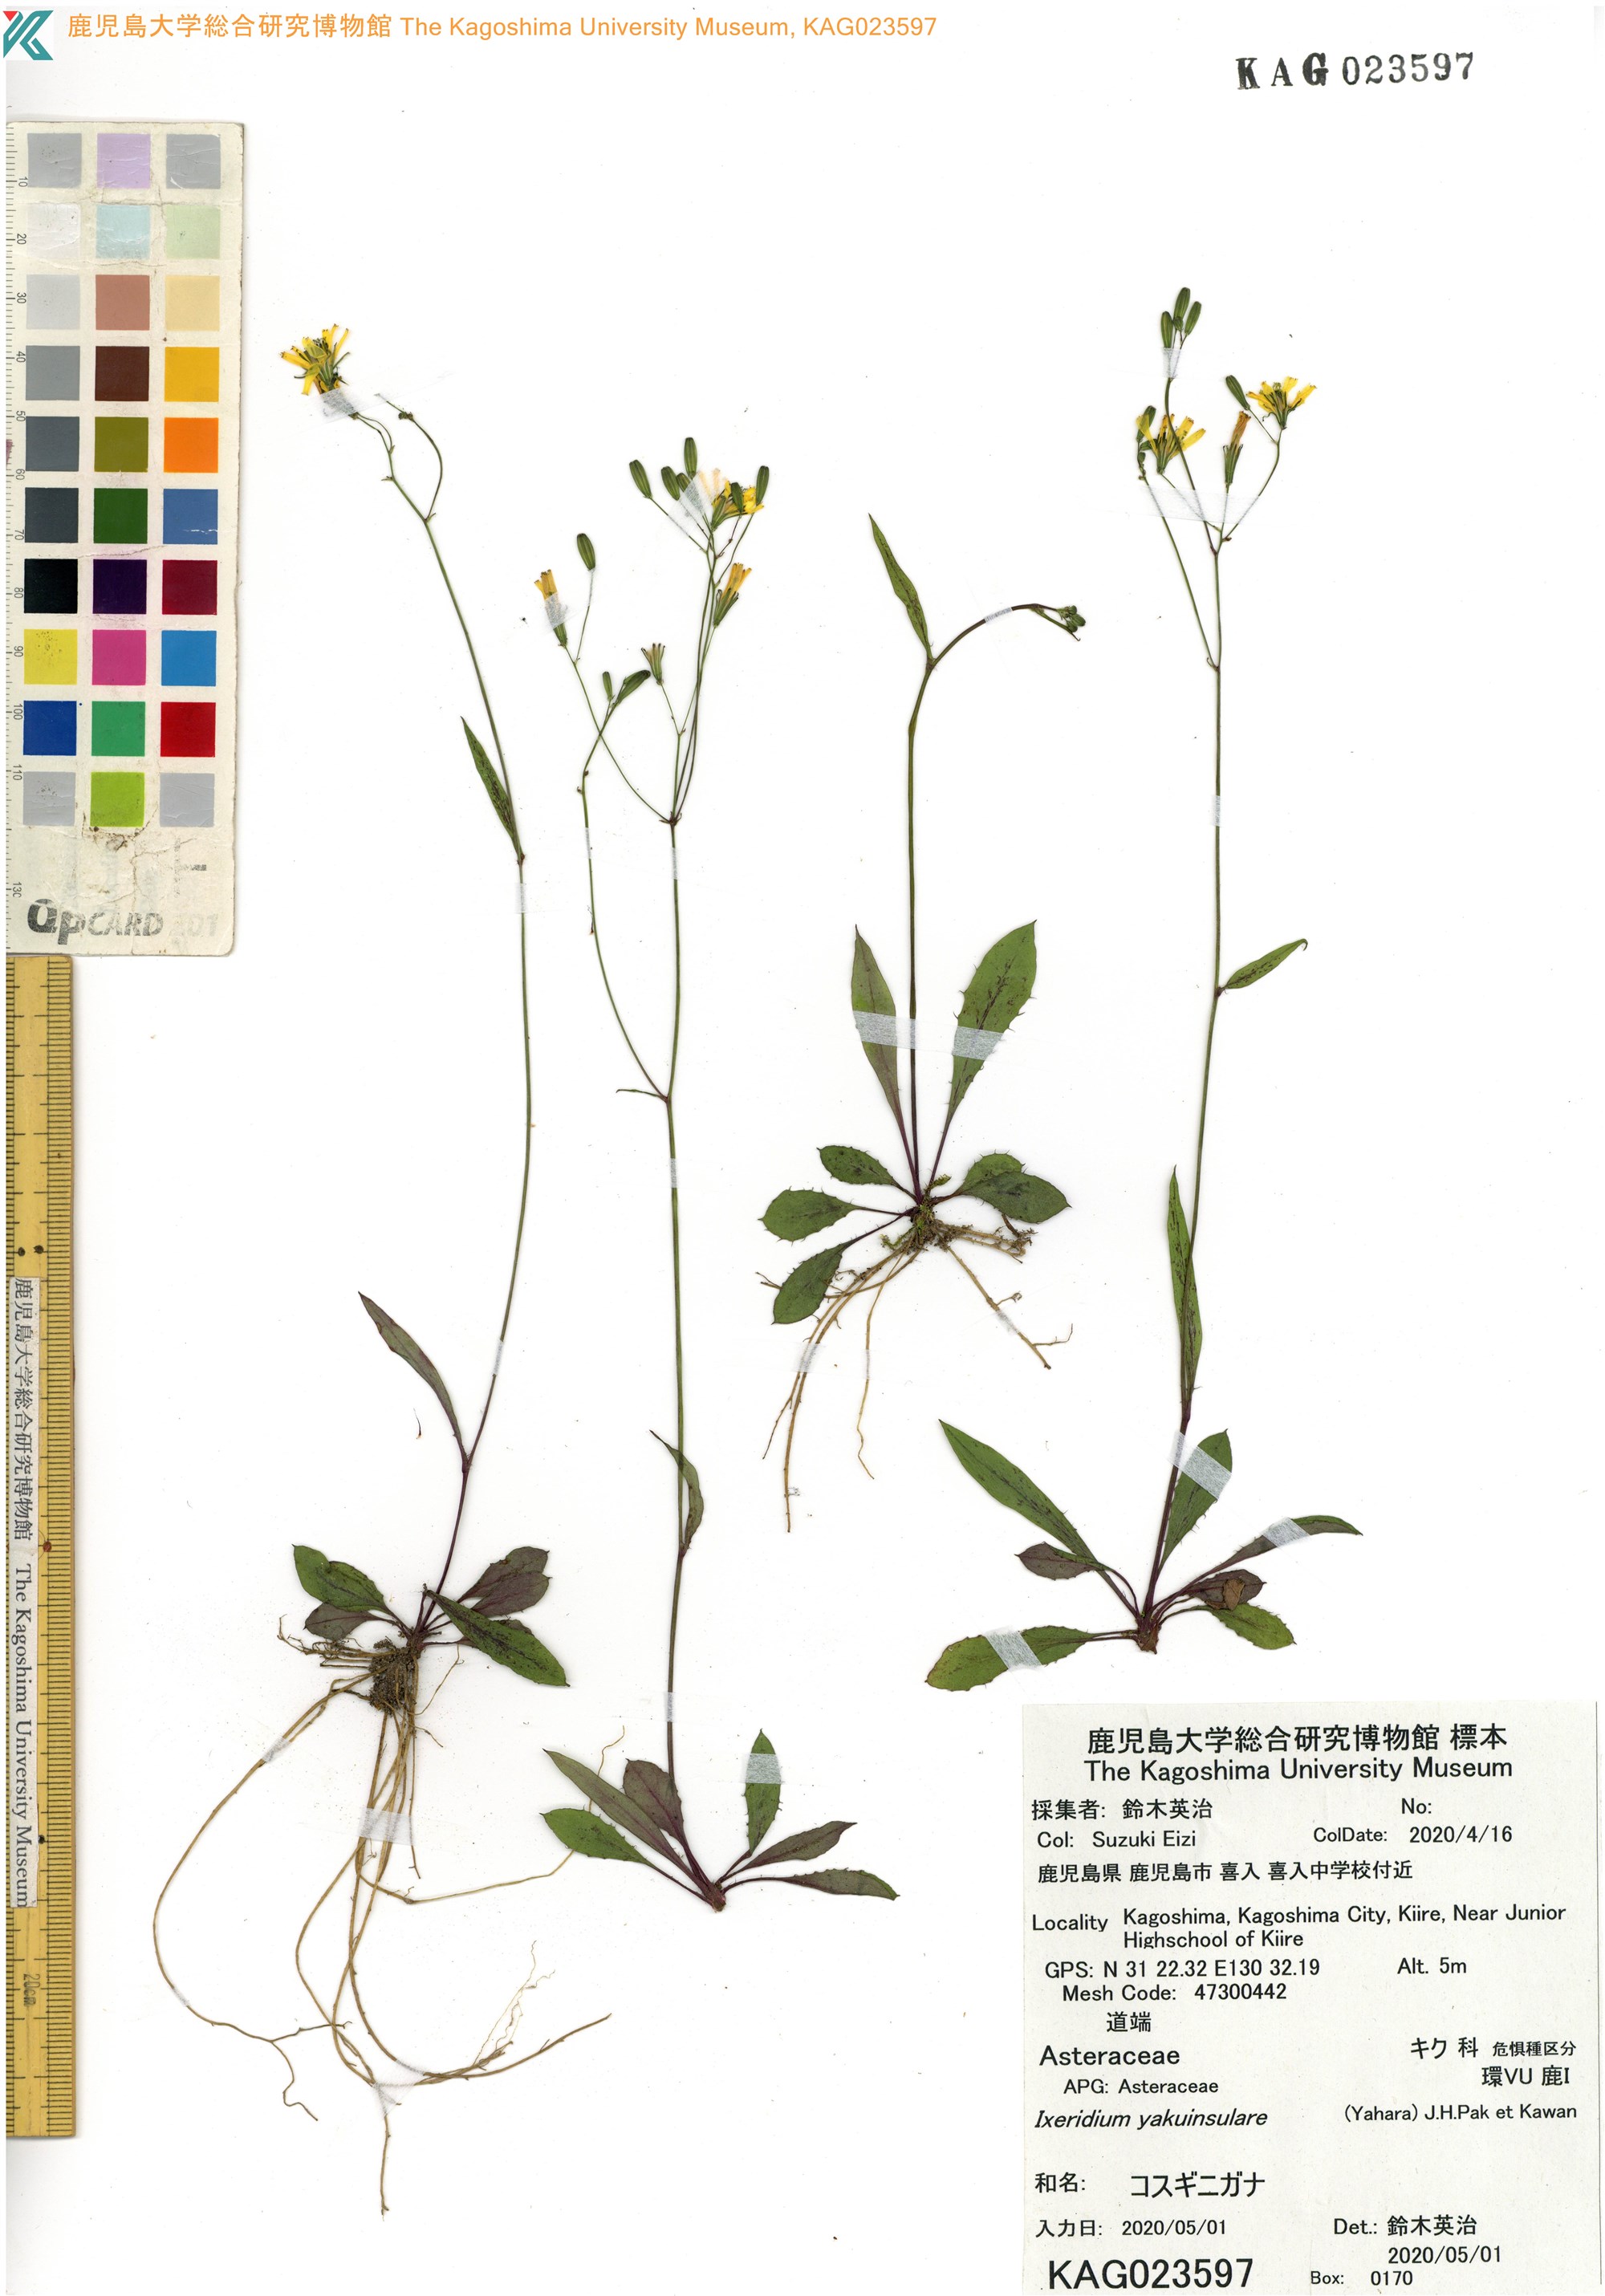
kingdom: Plantae
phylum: Tracheophyta
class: Magnoliopsida
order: Asterales
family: Asteraceae
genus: Ixeridium
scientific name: Ixeridium yakuinsulare
